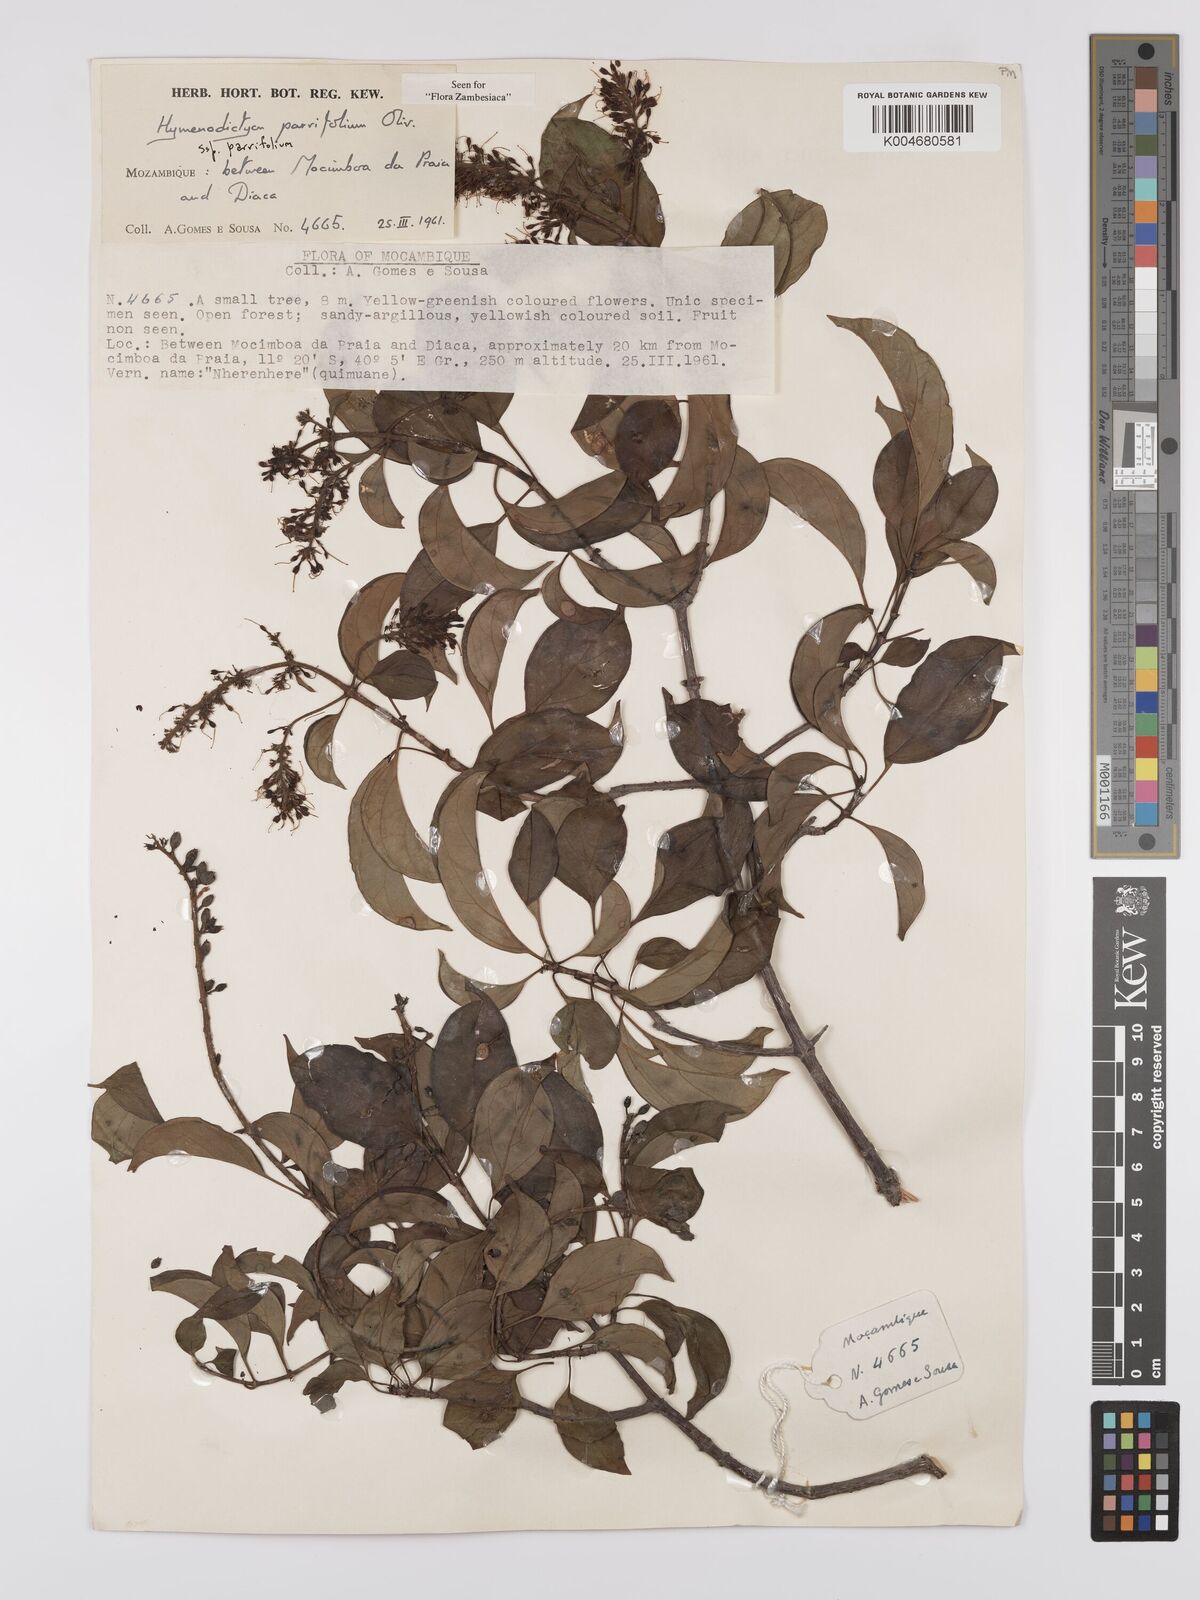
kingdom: Plantae
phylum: Tracheophyta
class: Magnoliopsida
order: Gentianales
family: Rubiaceae
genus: Hymenodictyon
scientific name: Hymenodictyon parvifolium
